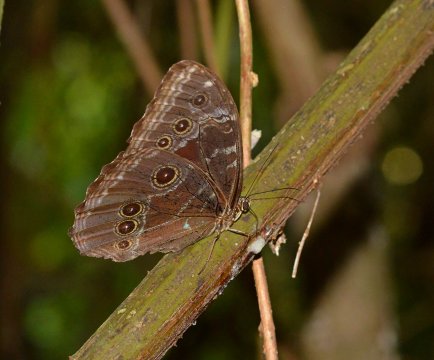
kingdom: Animalia
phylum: Arthropoda
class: Insecta
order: Lepidoptera
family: Nymphalidae
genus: Morpho
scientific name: Morpho helenor
